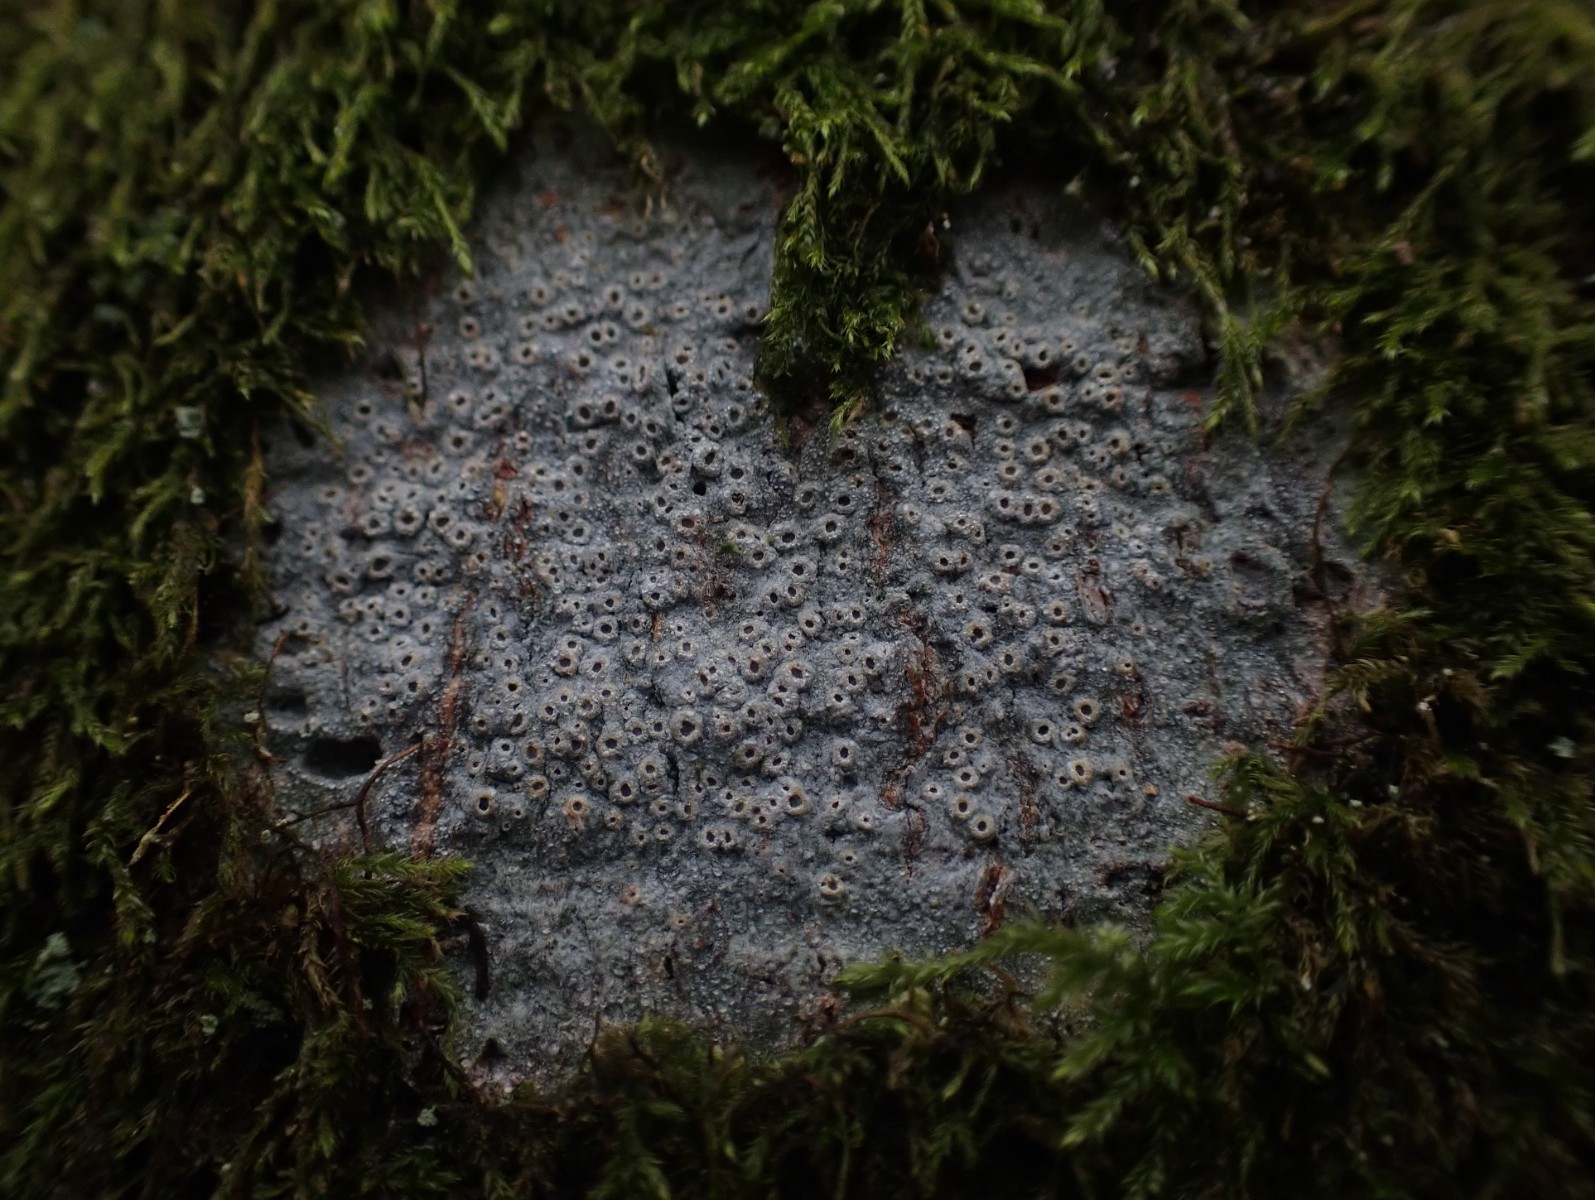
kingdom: Fungi
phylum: Ascomycota
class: Lecanoromycetes
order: Ostropales
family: Graphidaceae
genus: Thelotrema
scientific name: Thelotrema lepadinum
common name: almindelig slørkantlav
